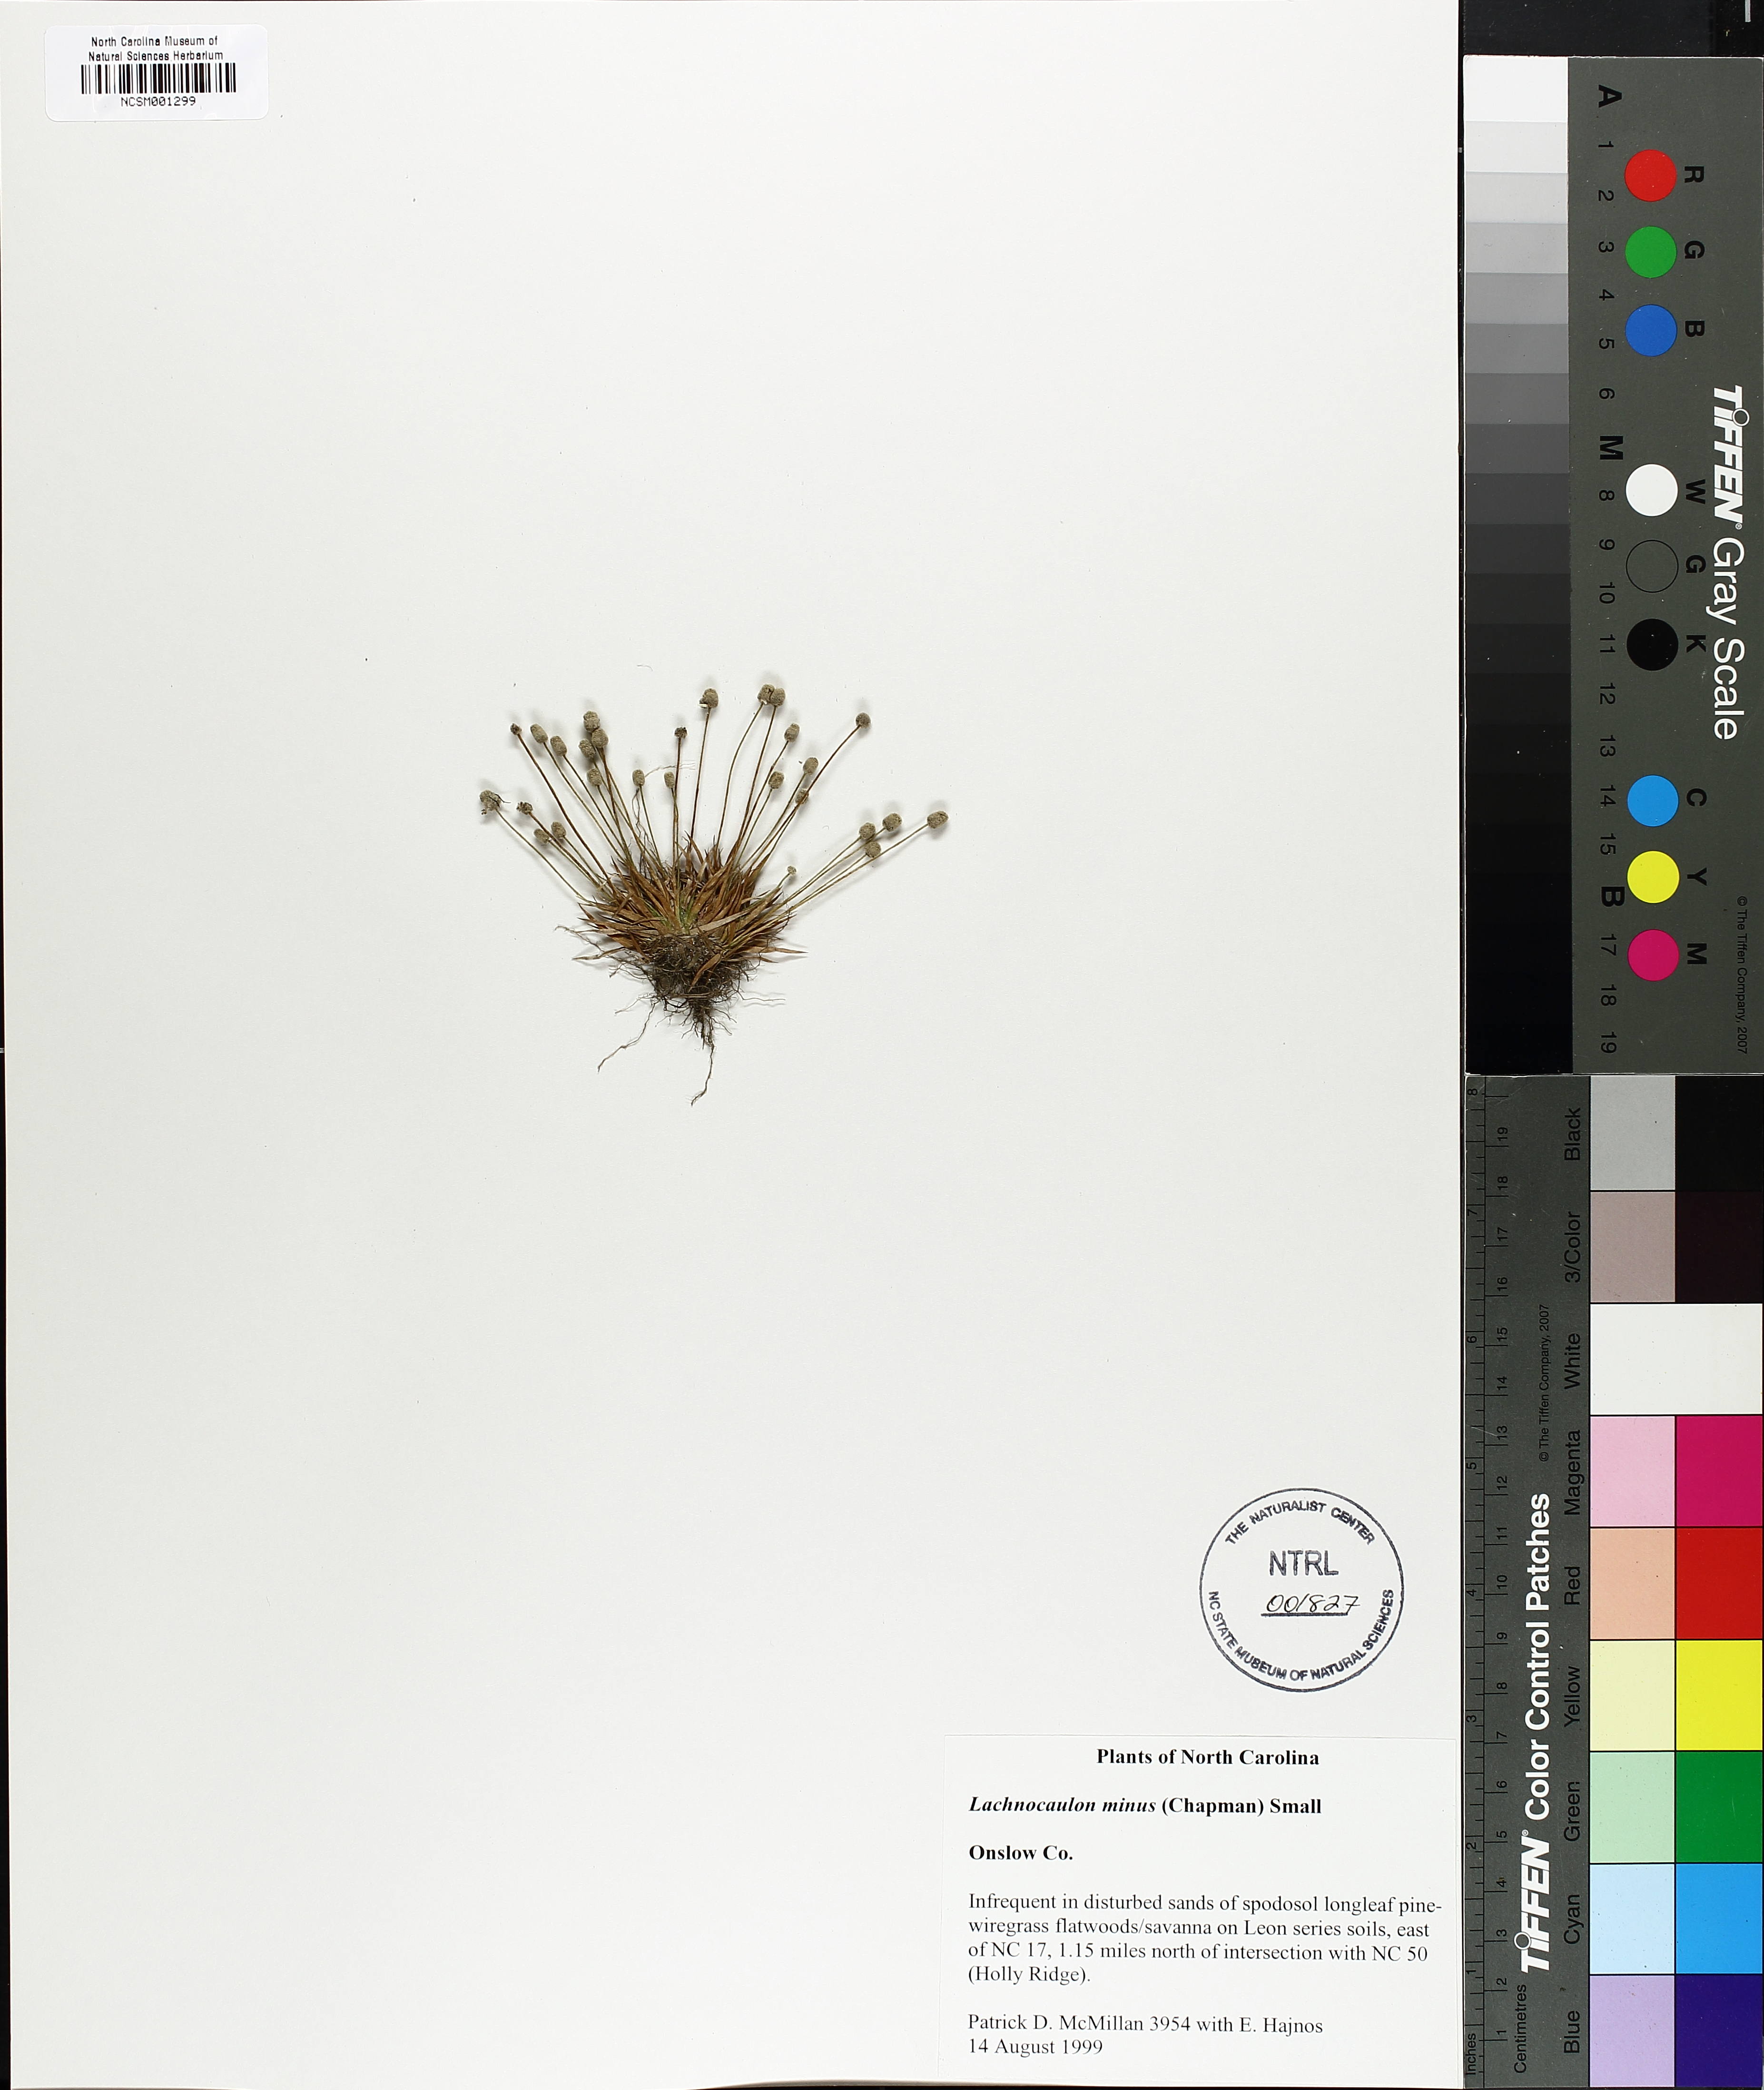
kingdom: Plantae
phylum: Tracheophyta
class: Liliopsida
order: Poales
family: Eriocaulaceae
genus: Paepalanthus
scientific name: Paepalanthus minus
